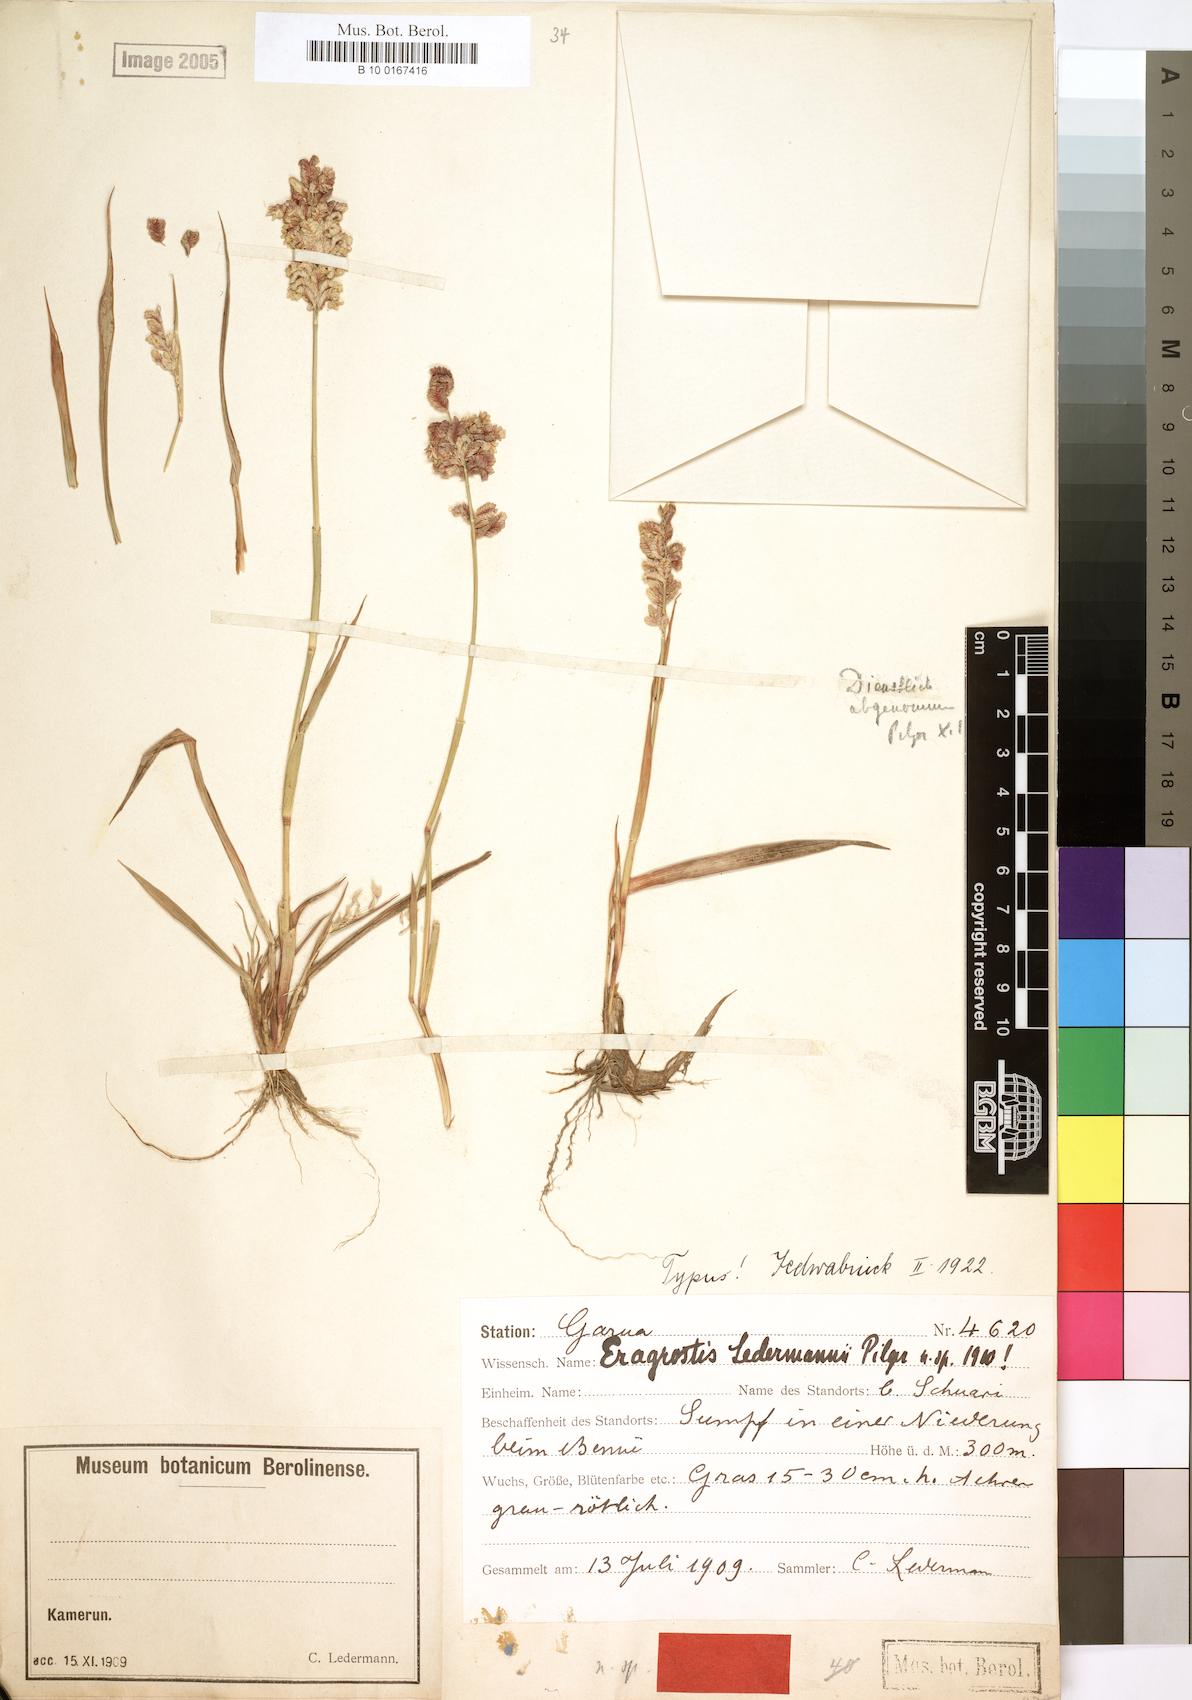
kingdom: Plantae
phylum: Tracheophyta
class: Liliopsida
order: Poales
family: Poaceae
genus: Eragrostis
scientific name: Eragrostis turgida
